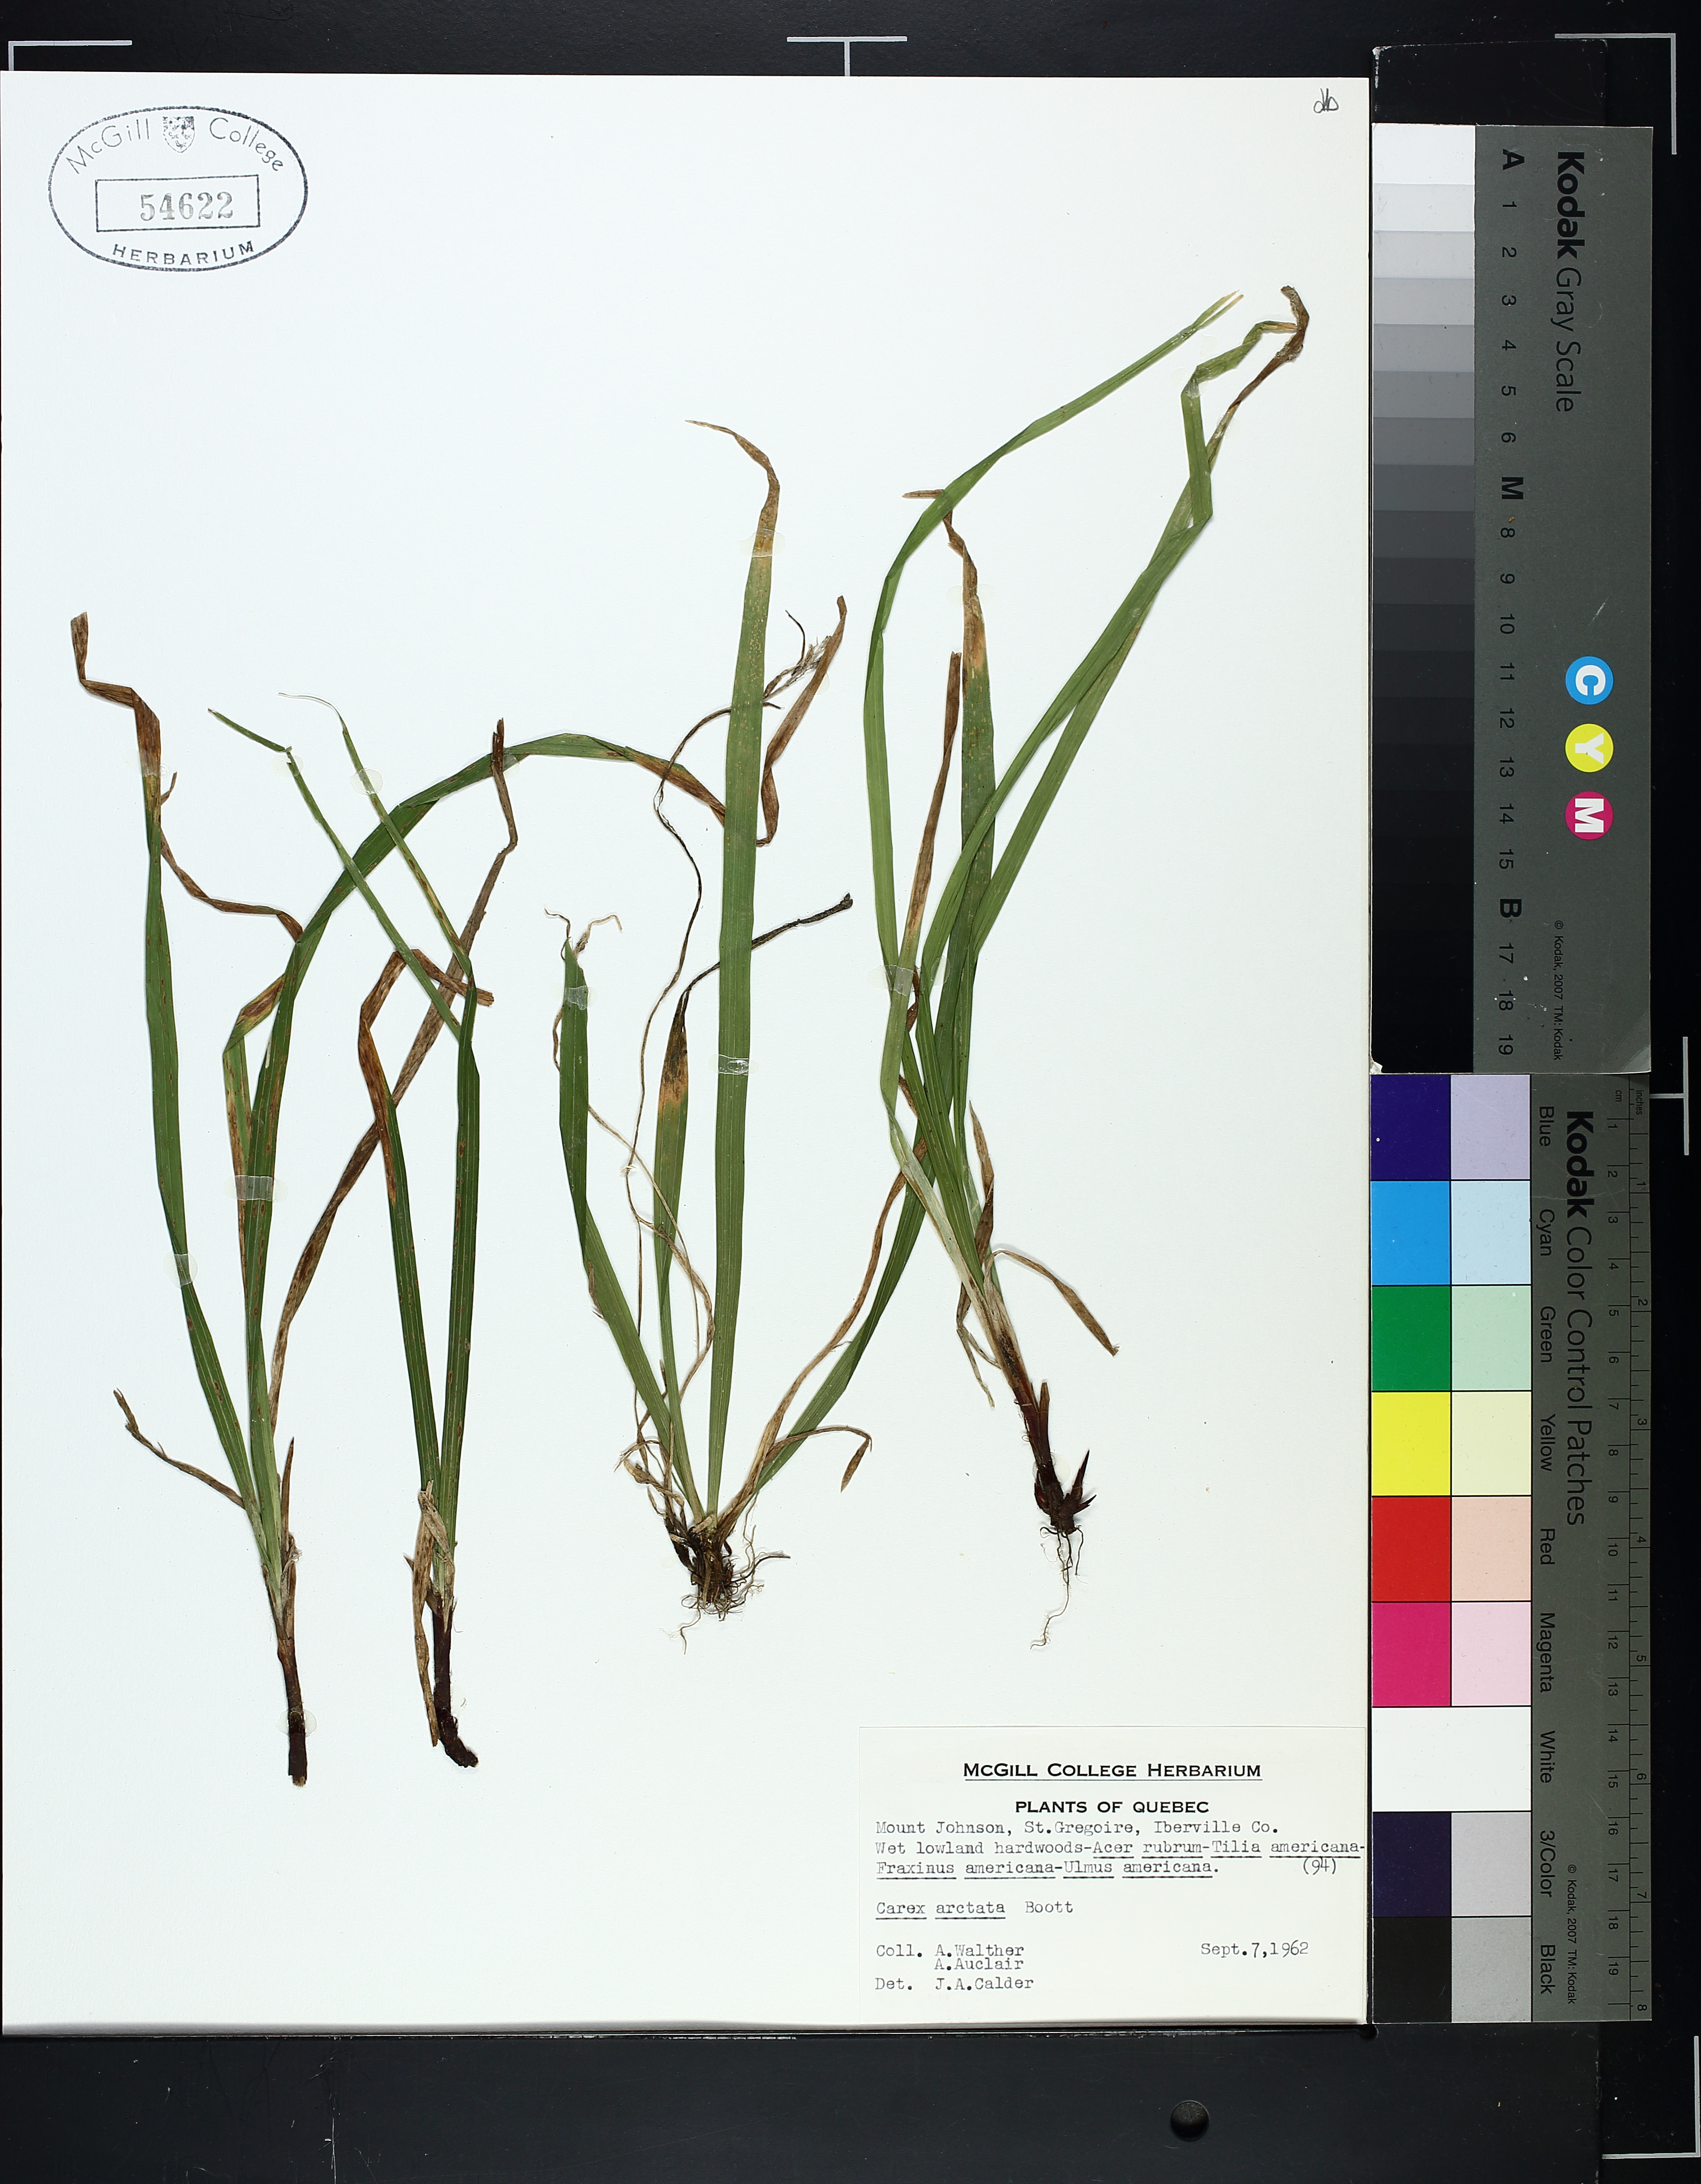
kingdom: Plantae
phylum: Tracheophyta
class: Liliopsida
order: Poales
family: Cyperaceae
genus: Carex
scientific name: Carex arctata
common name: Black sedge
